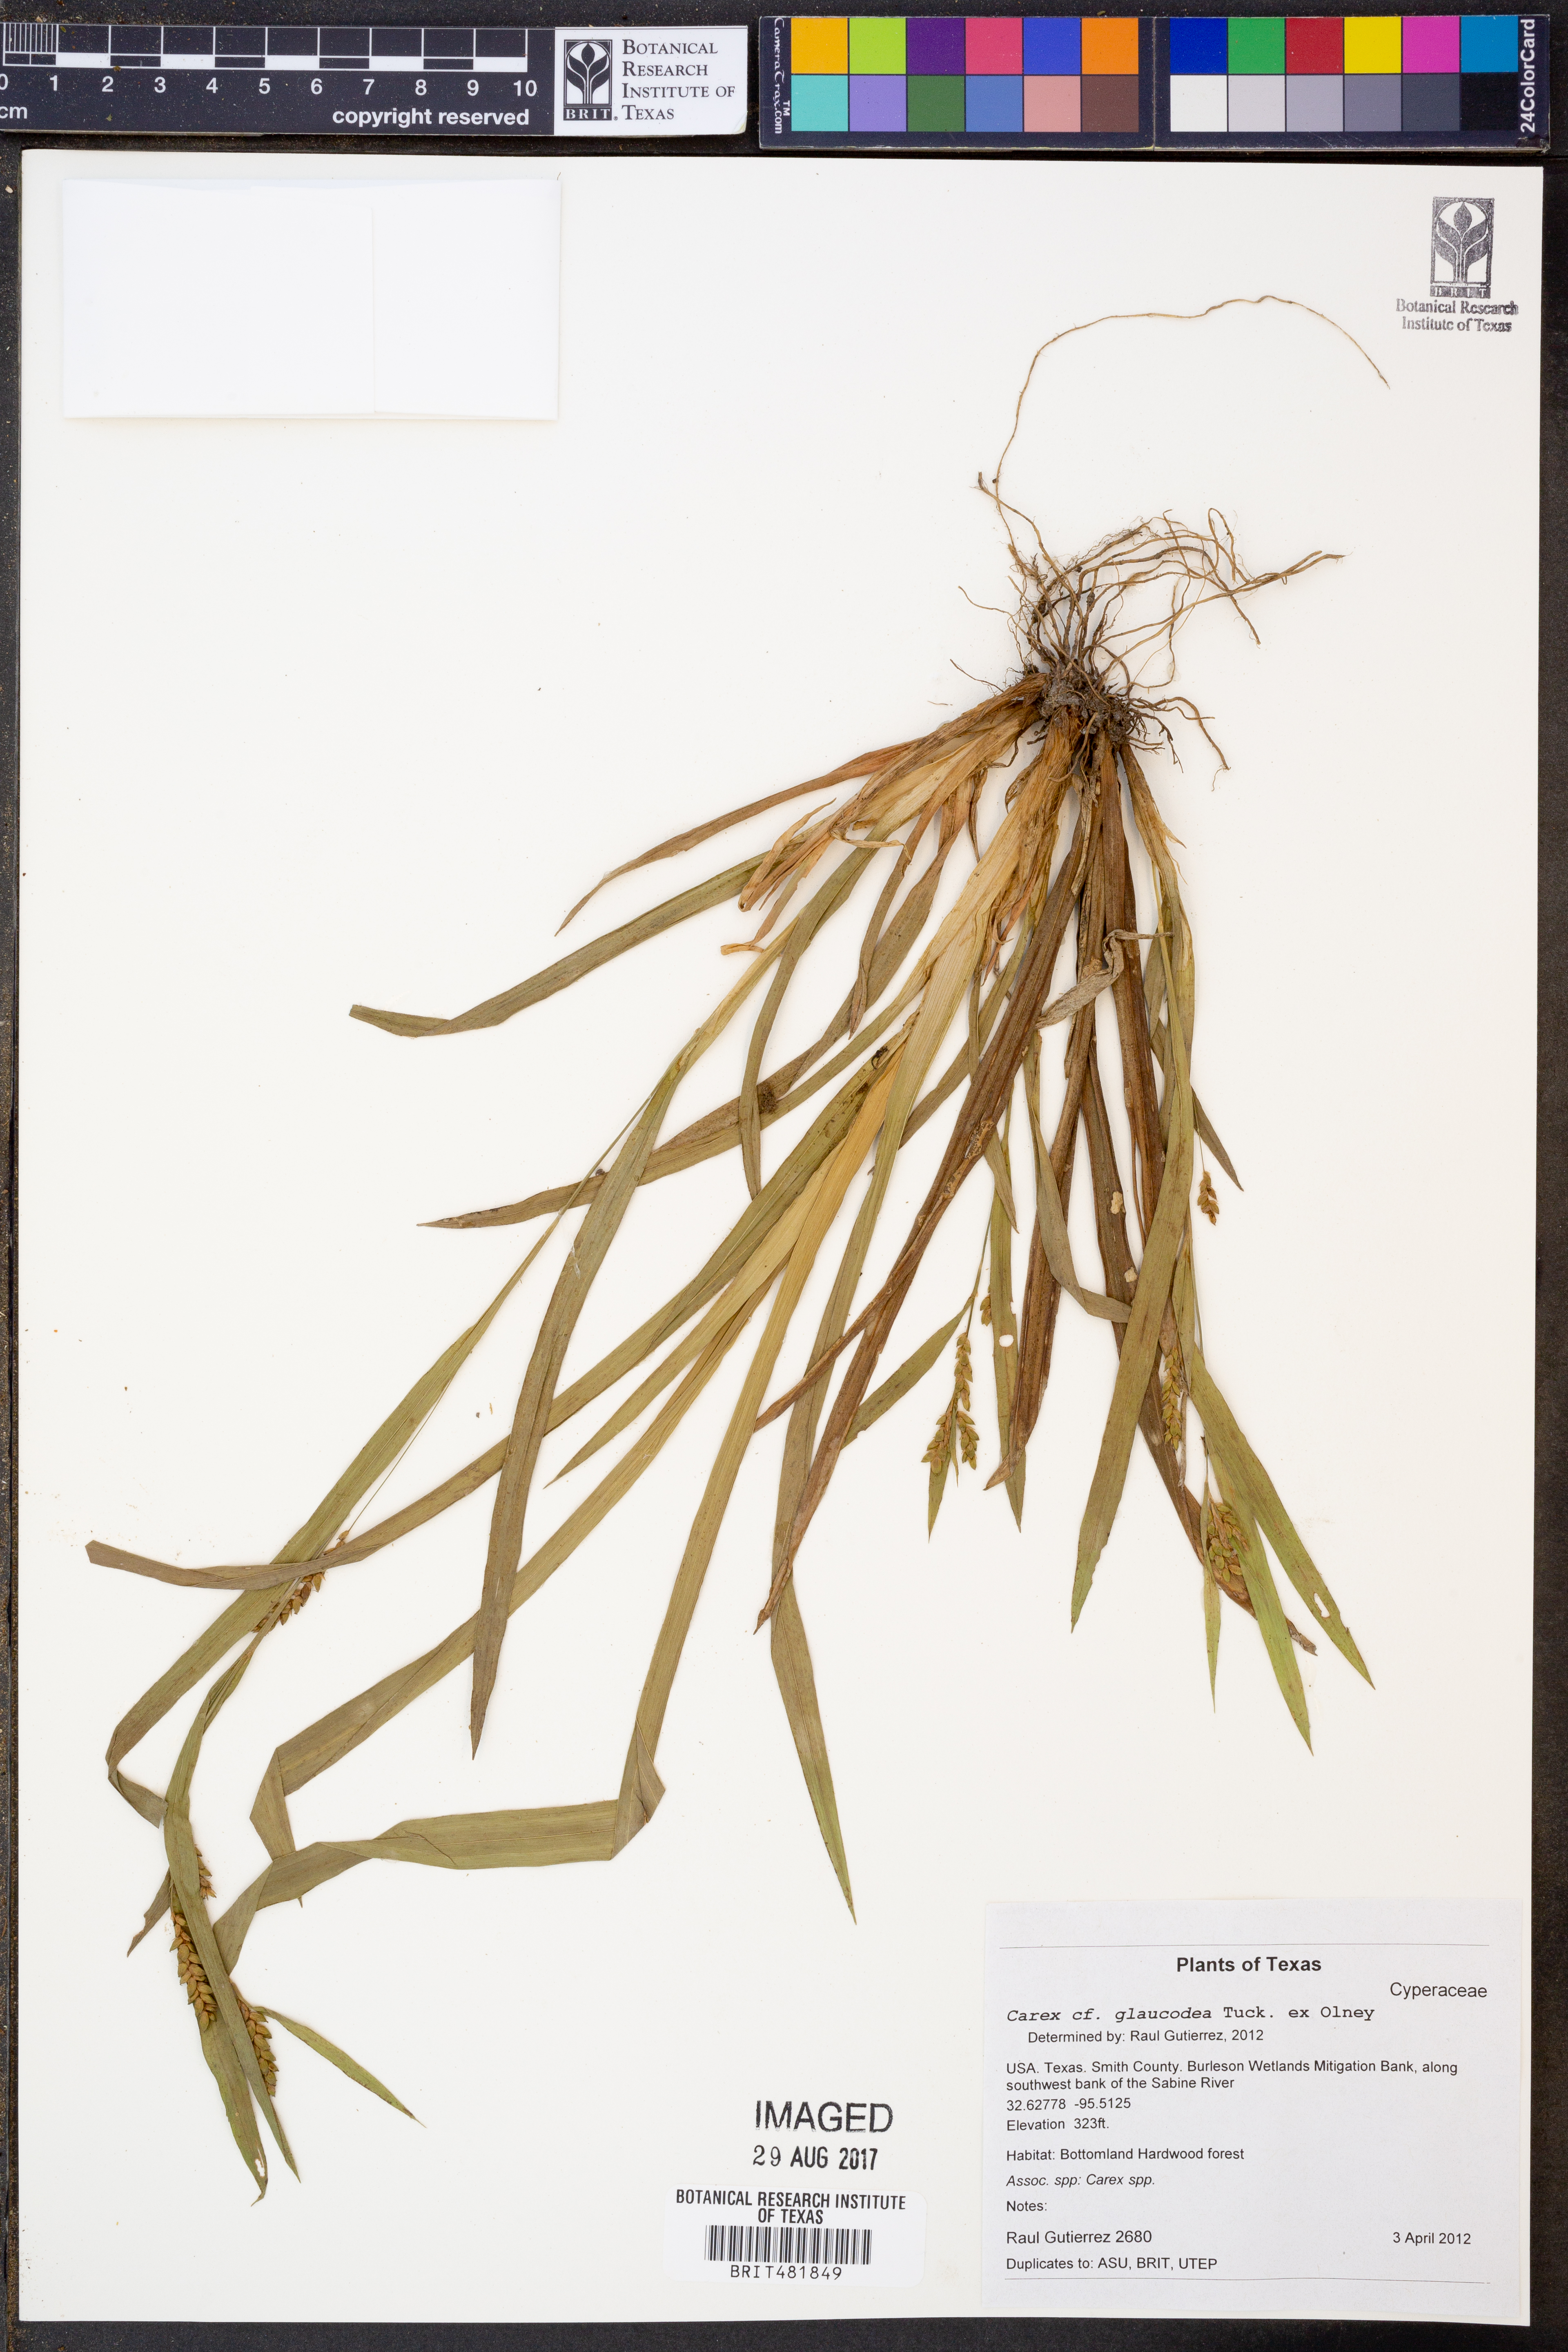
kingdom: Plantae
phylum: Tracheophyta
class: Liliopsida
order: Poales
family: Cyperaceae
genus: Carex
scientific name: Carex glaucodea
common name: Blue sedge
